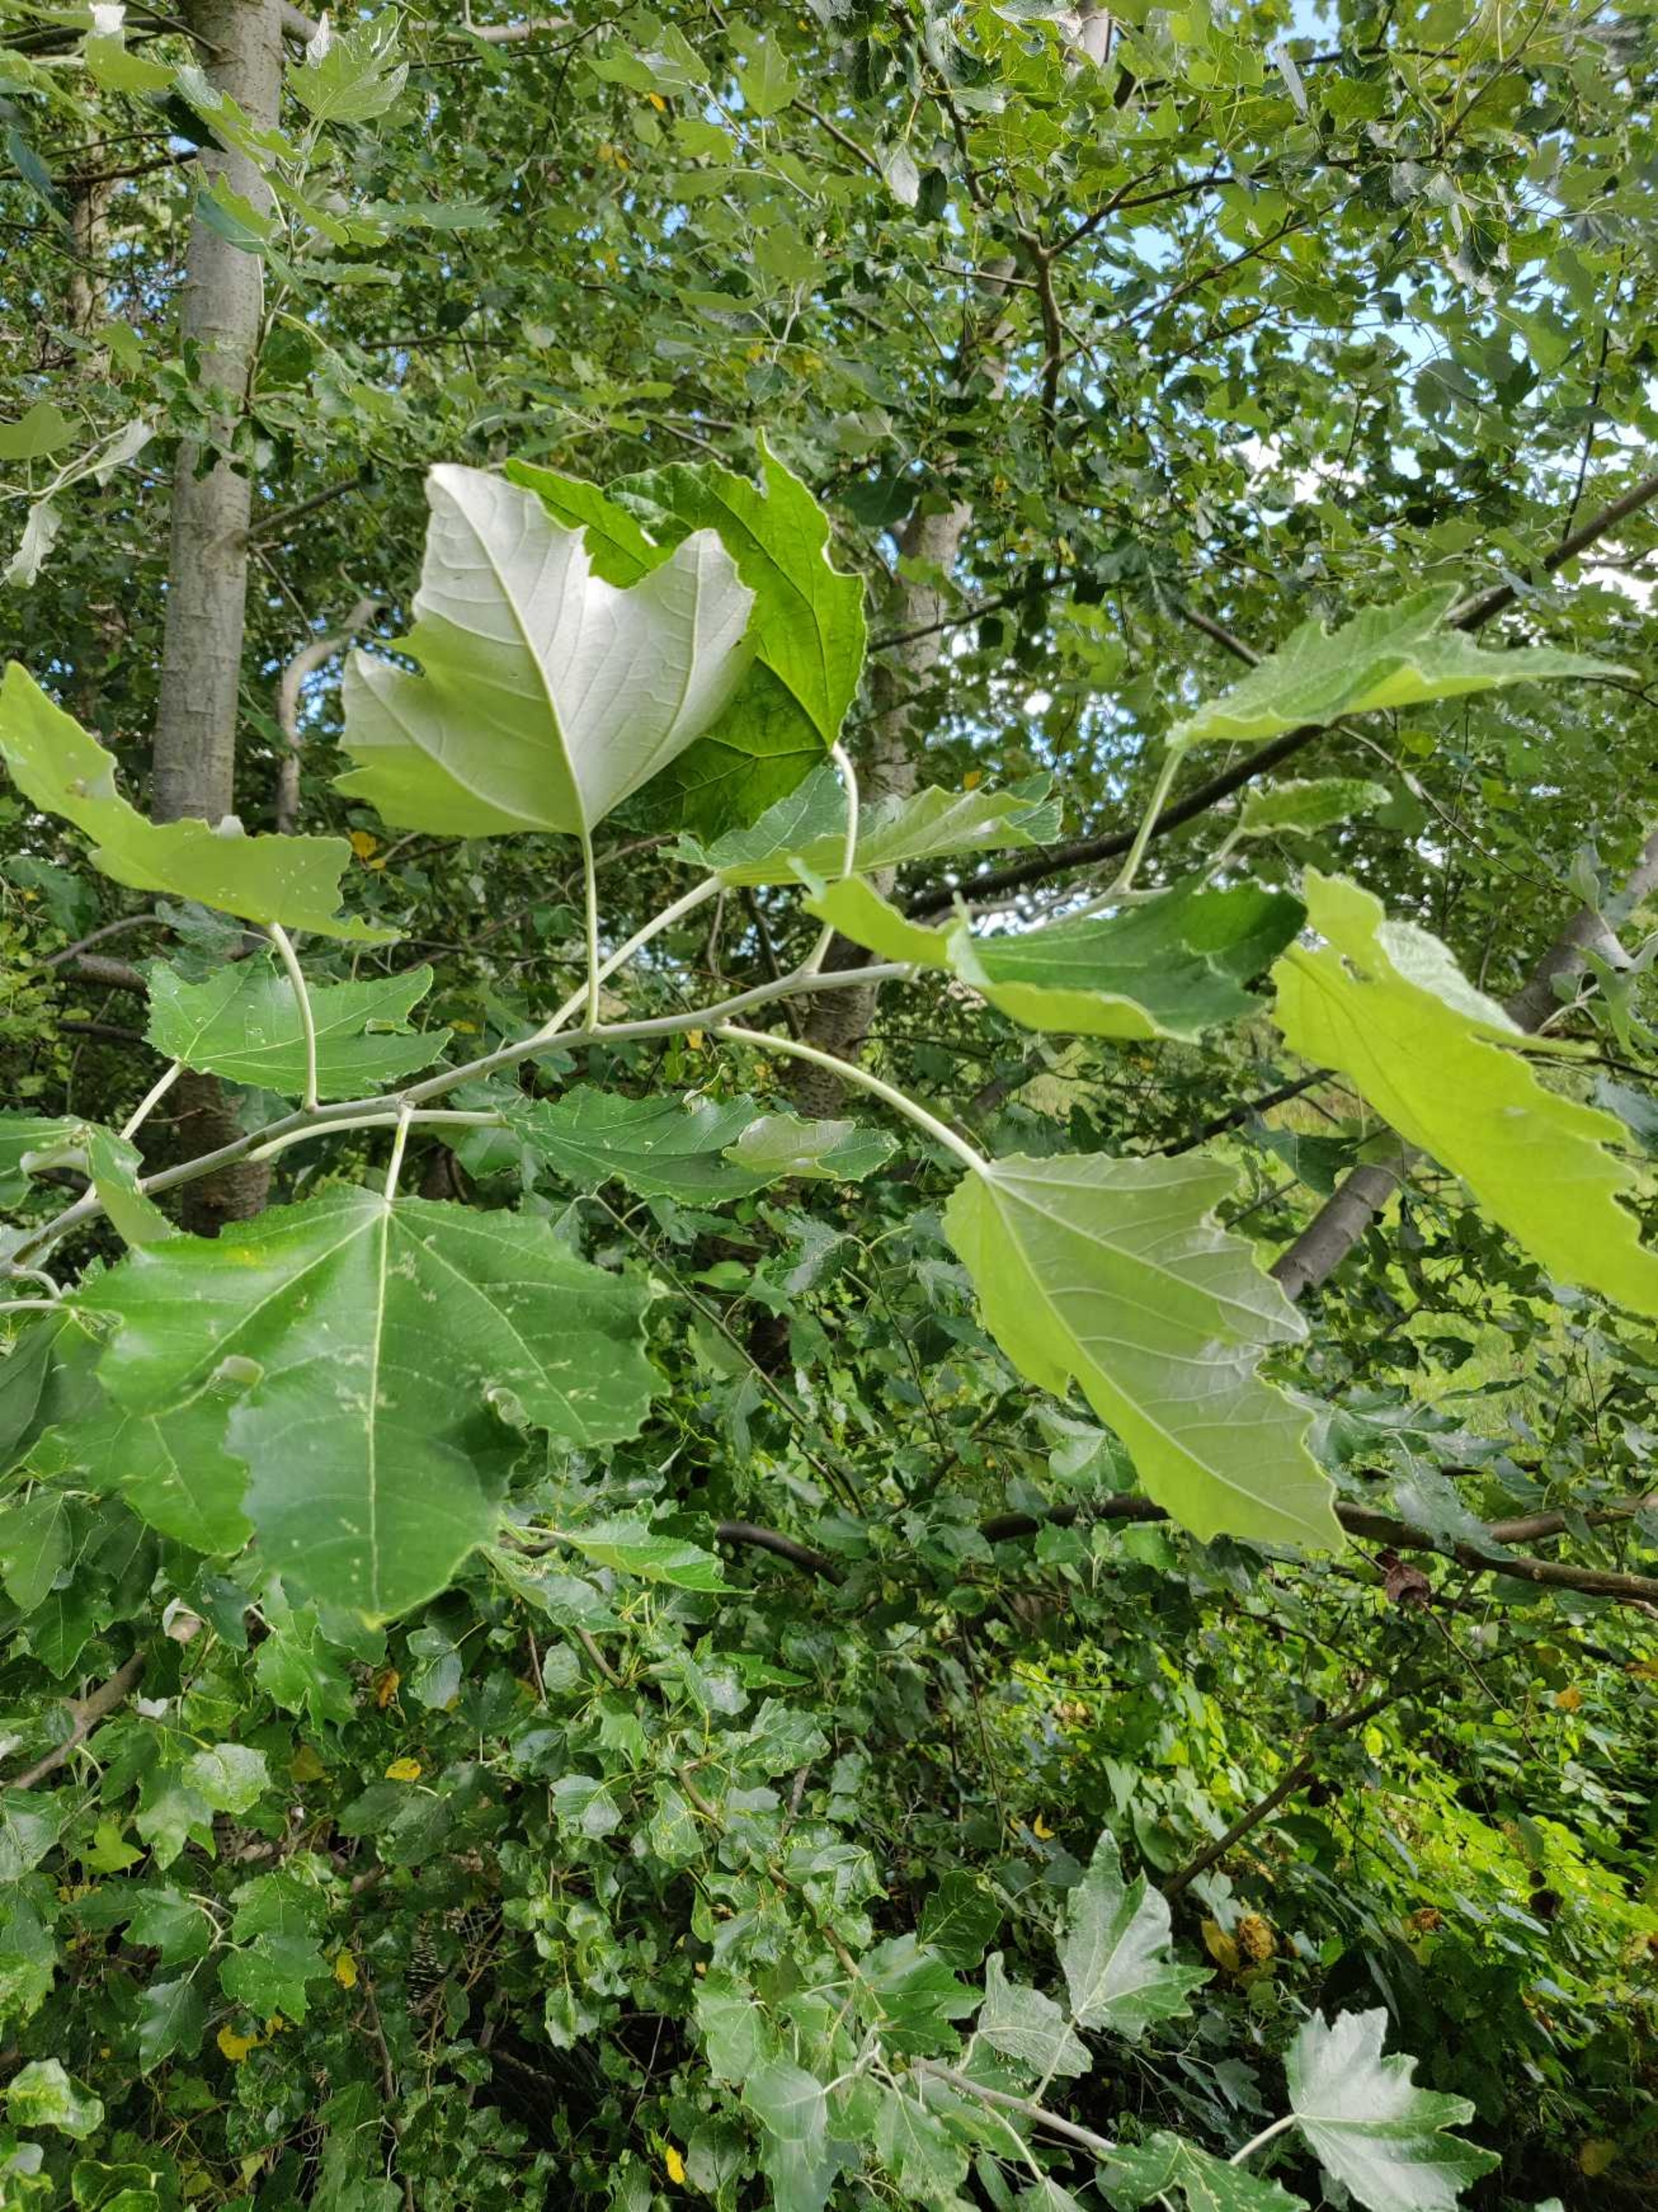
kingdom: Plantae
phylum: Tracheophyta
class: Magnoliopsida
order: Malpighiales
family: Salicaceae
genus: Populus
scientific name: Populus alba
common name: Sølv-poppel
